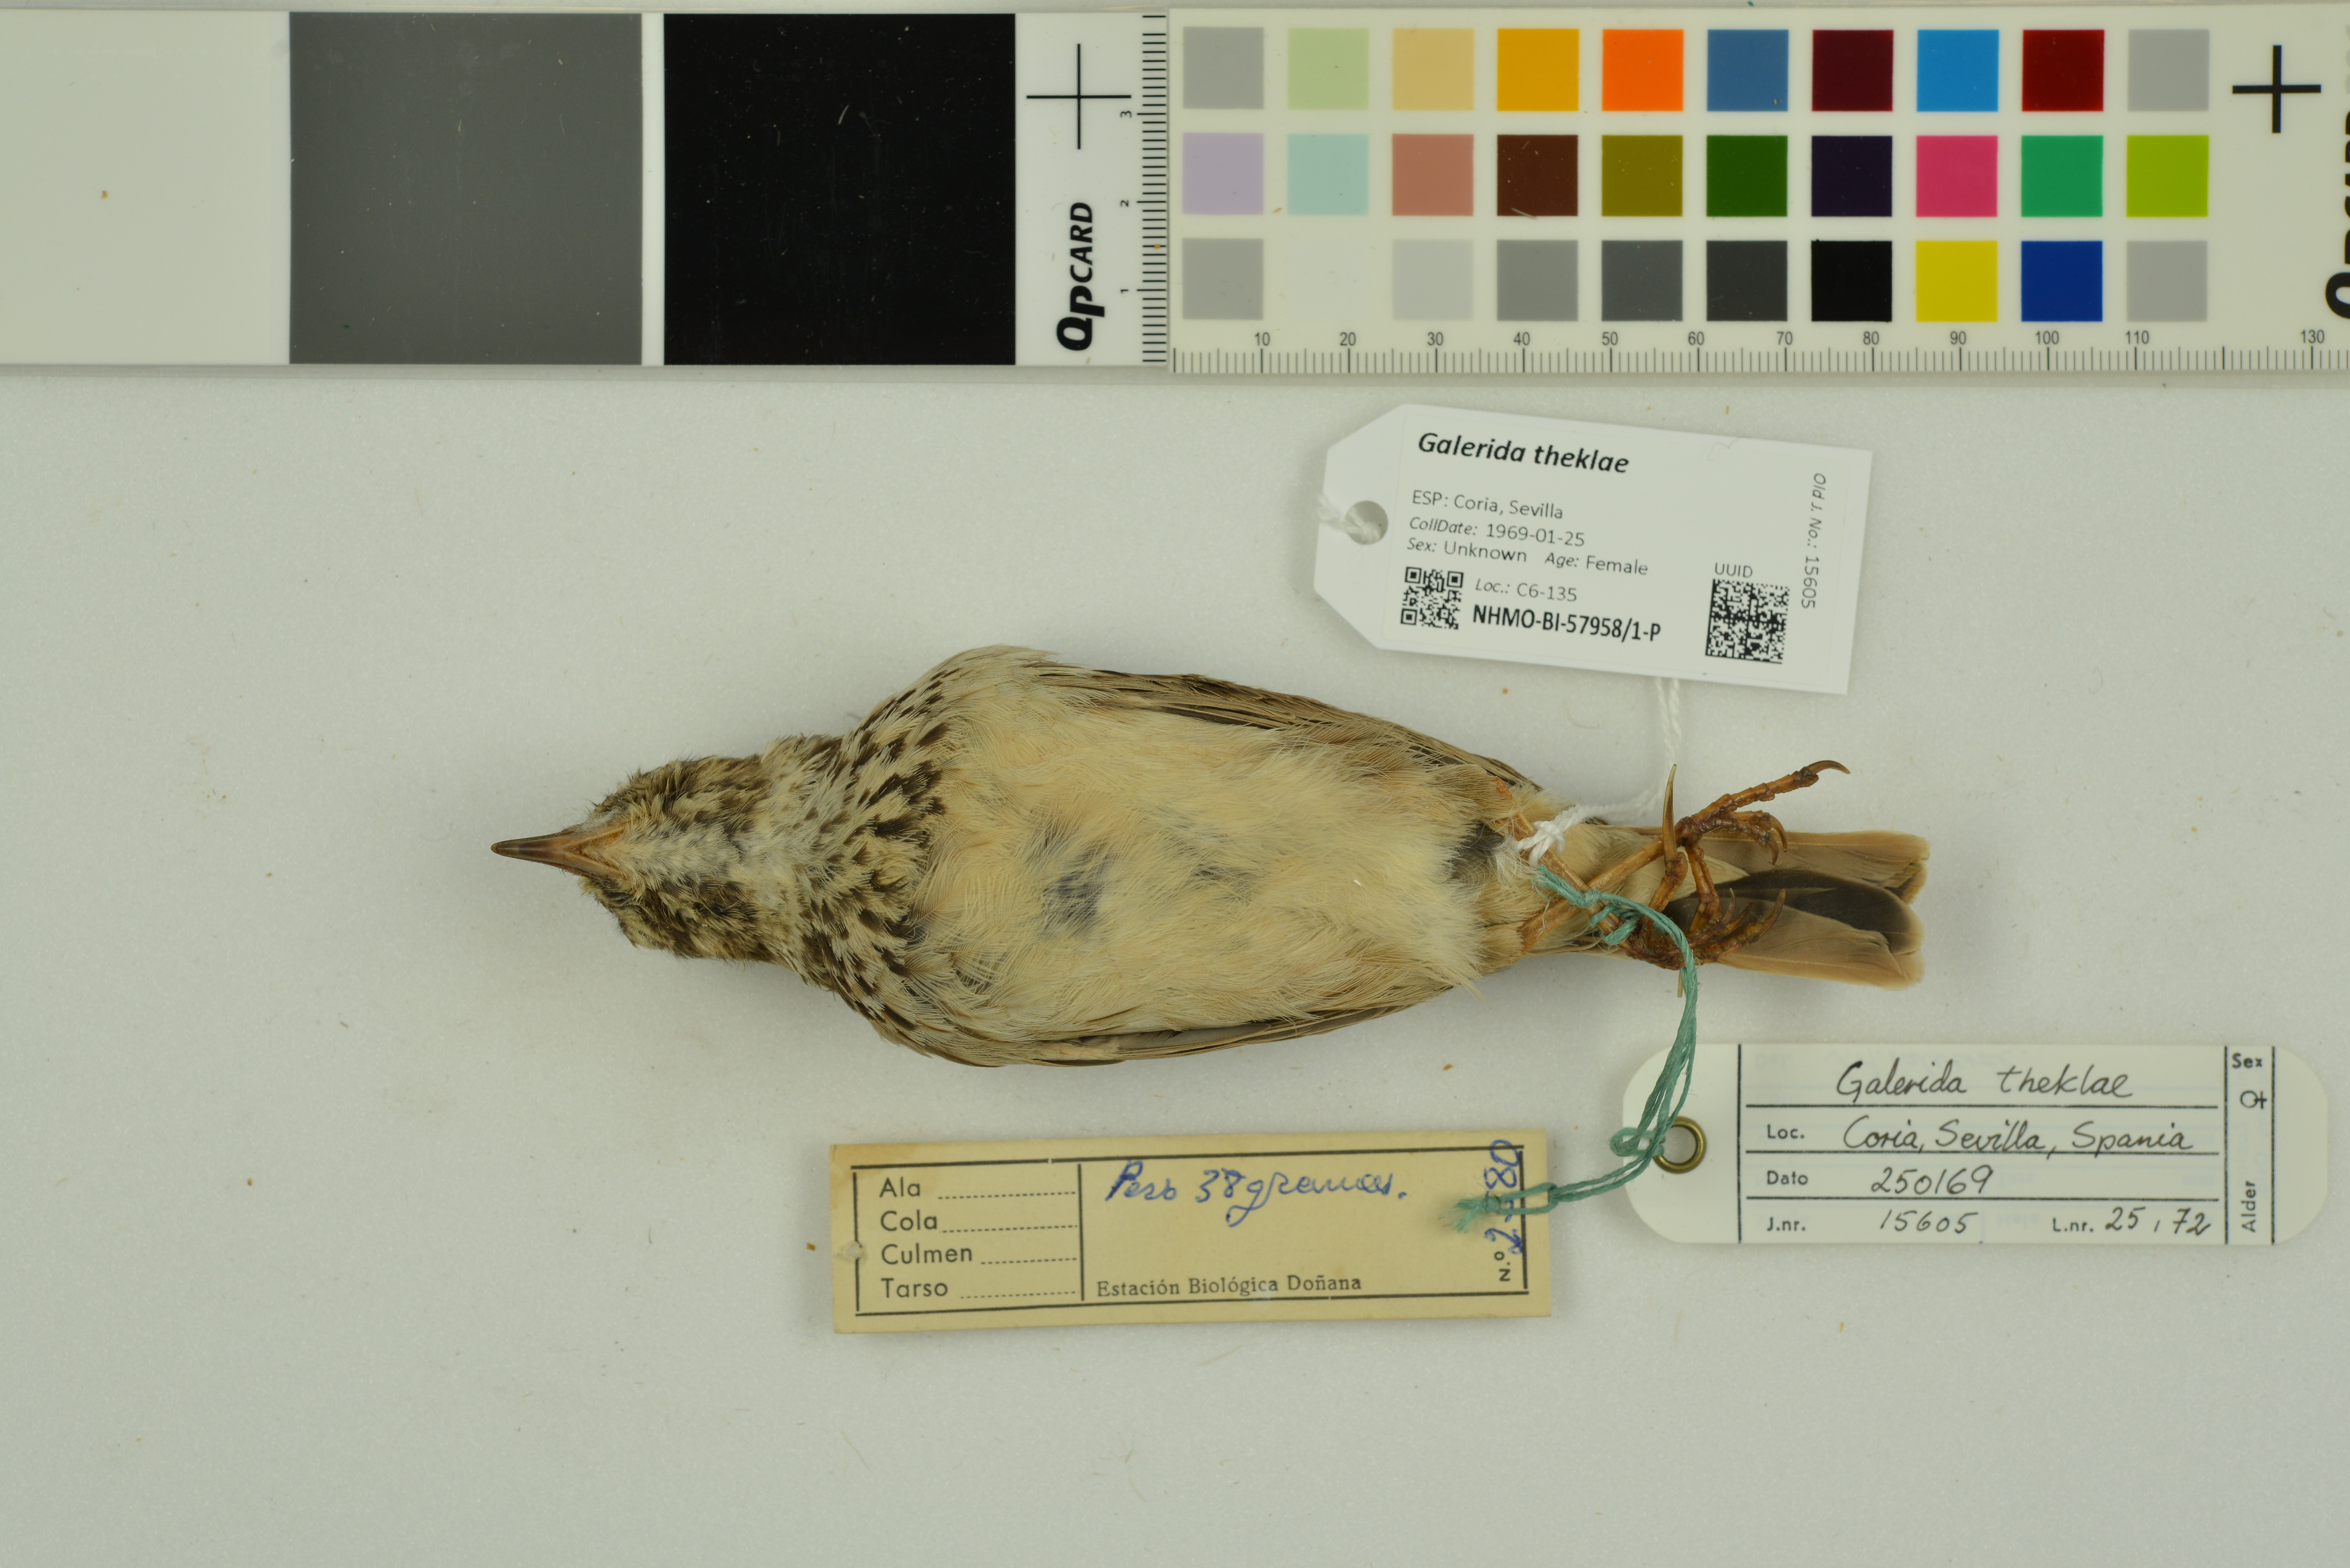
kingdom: Animalia
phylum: Chordata
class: Aves
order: Passeriformes
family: Alaudidae
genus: Galerida
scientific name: Galerida theklae
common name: Thekla lark
